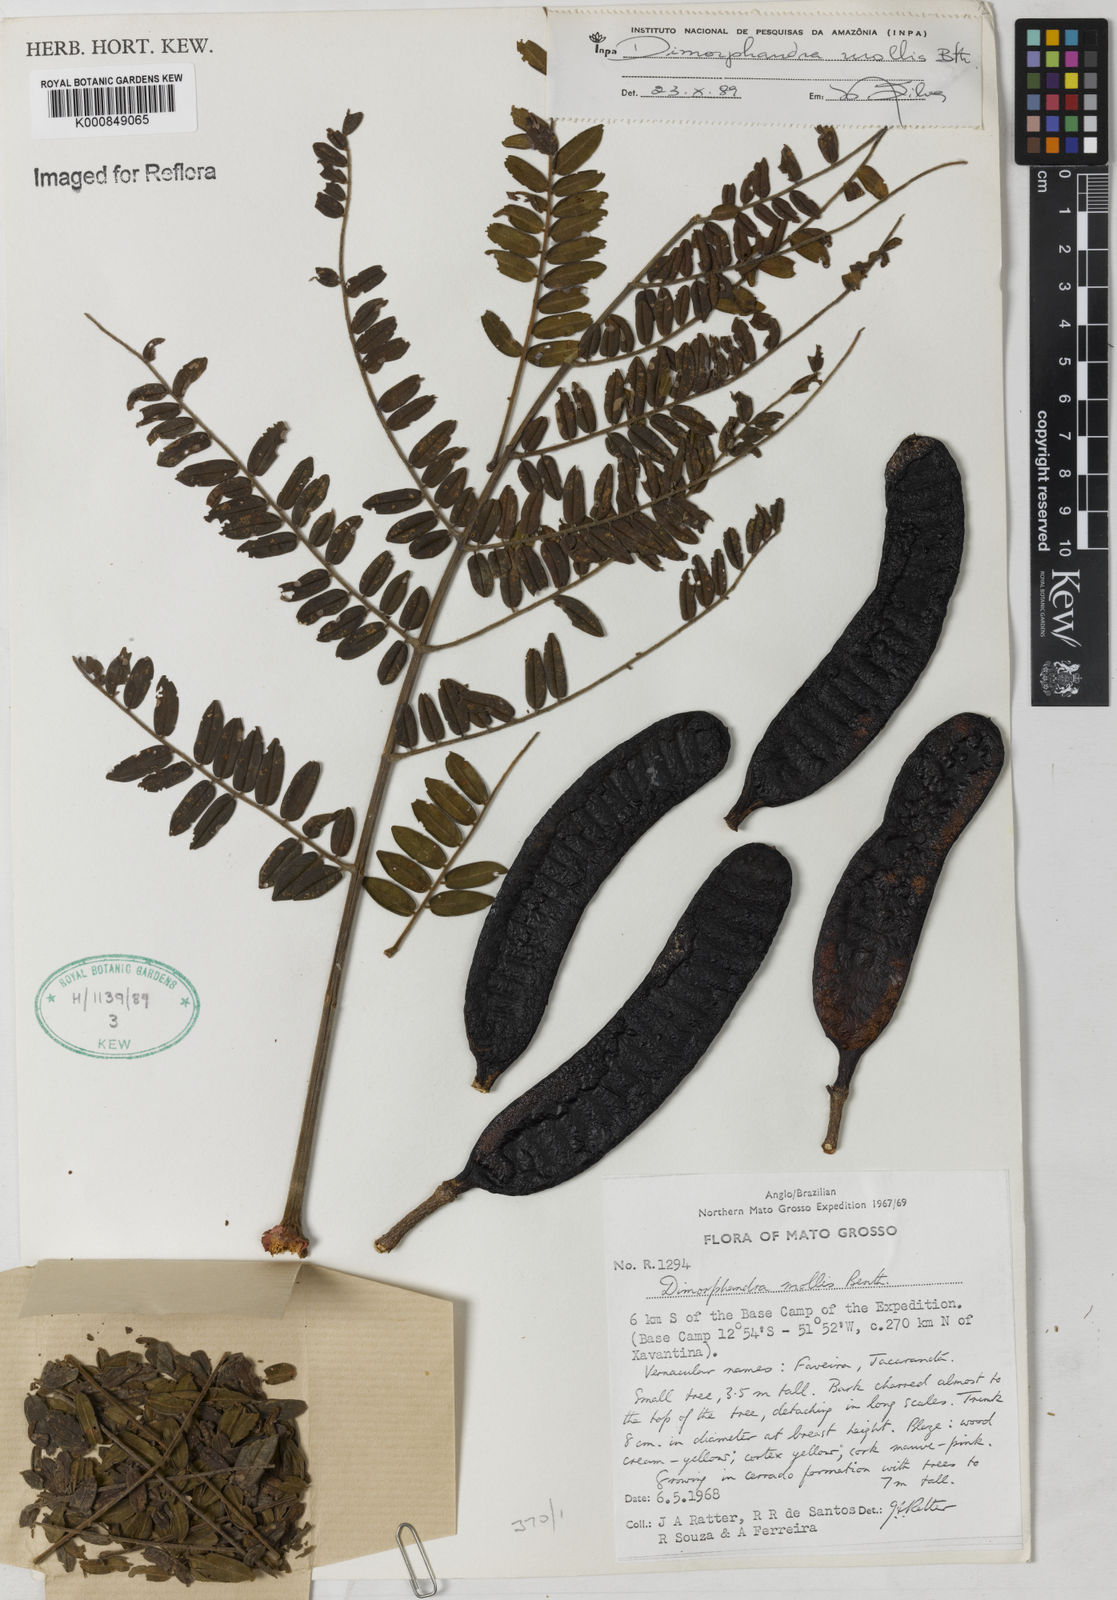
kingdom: Plantae
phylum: Tracheophyta
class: Magnoliopsida
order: Fabales
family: Fabaceae
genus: Dimorphandra
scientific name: Dimorphandra mollis
